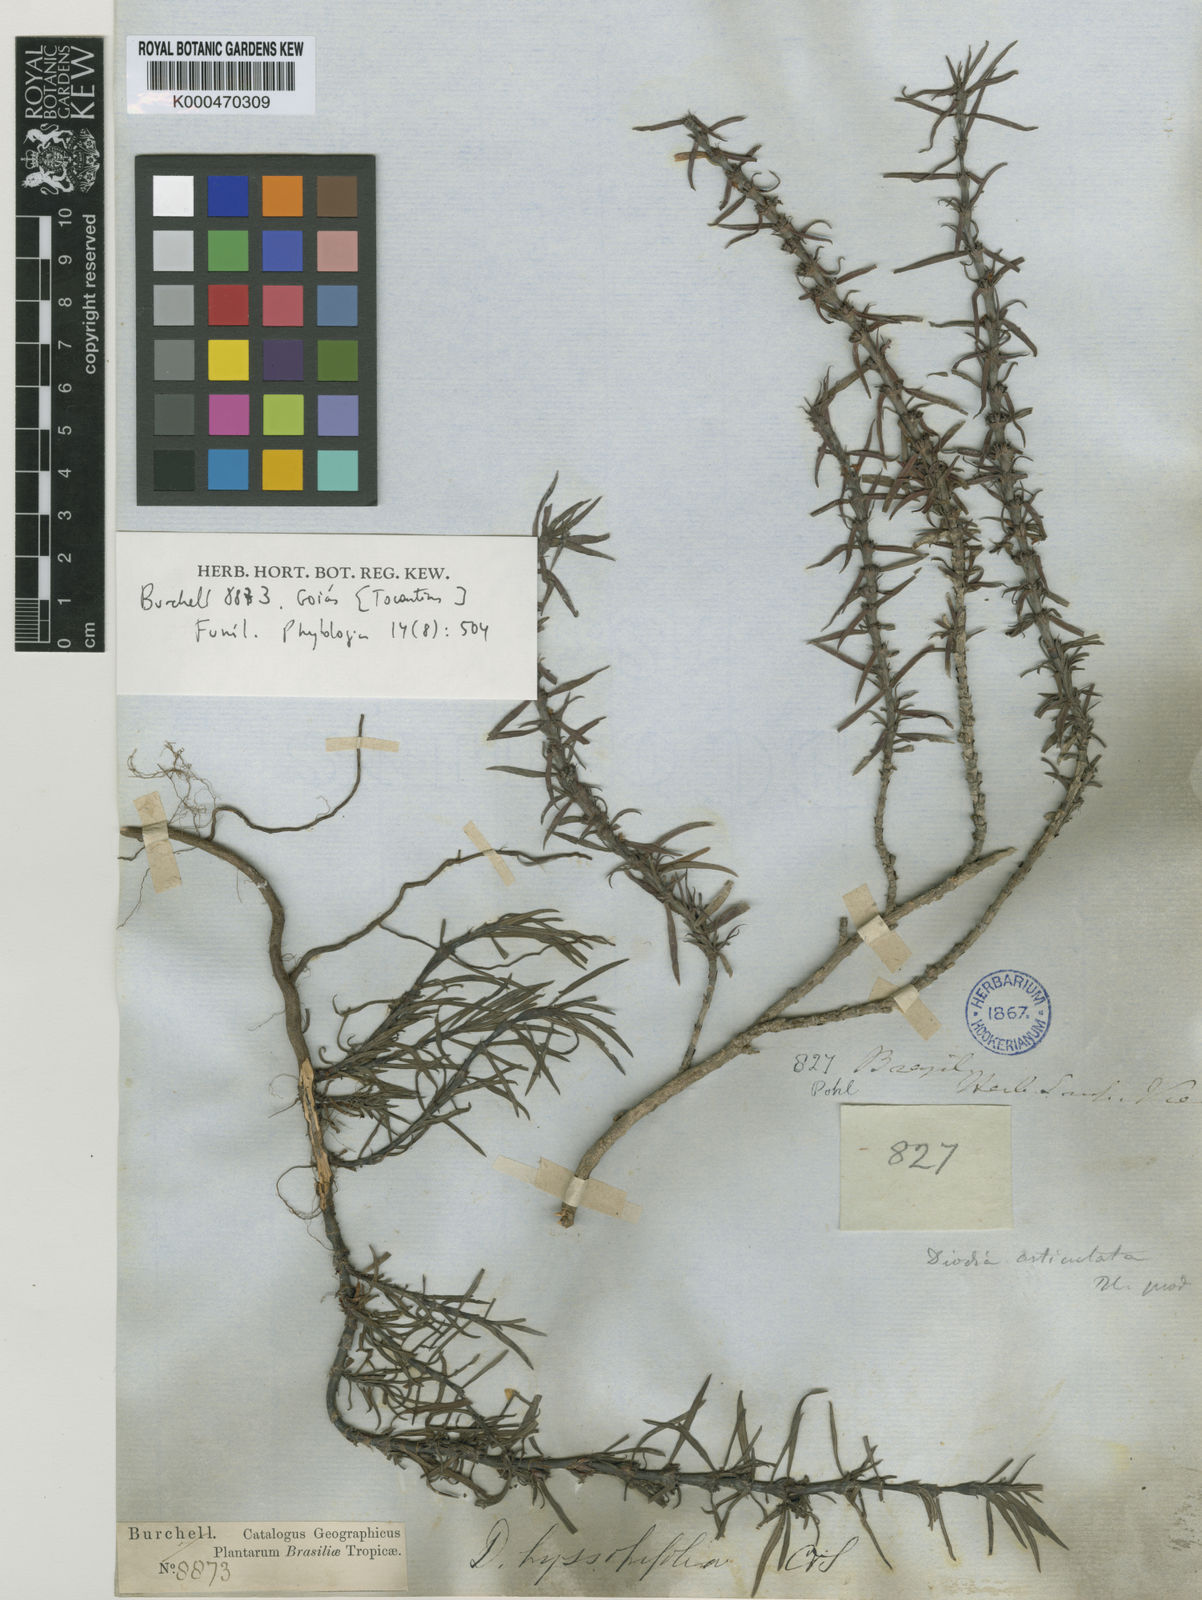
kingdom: Plantae
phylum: Tracheophyta
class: Magnoliopsida
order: Gentianales
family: Rubiaceae
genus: Spermacoce
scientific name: Spermacoce
